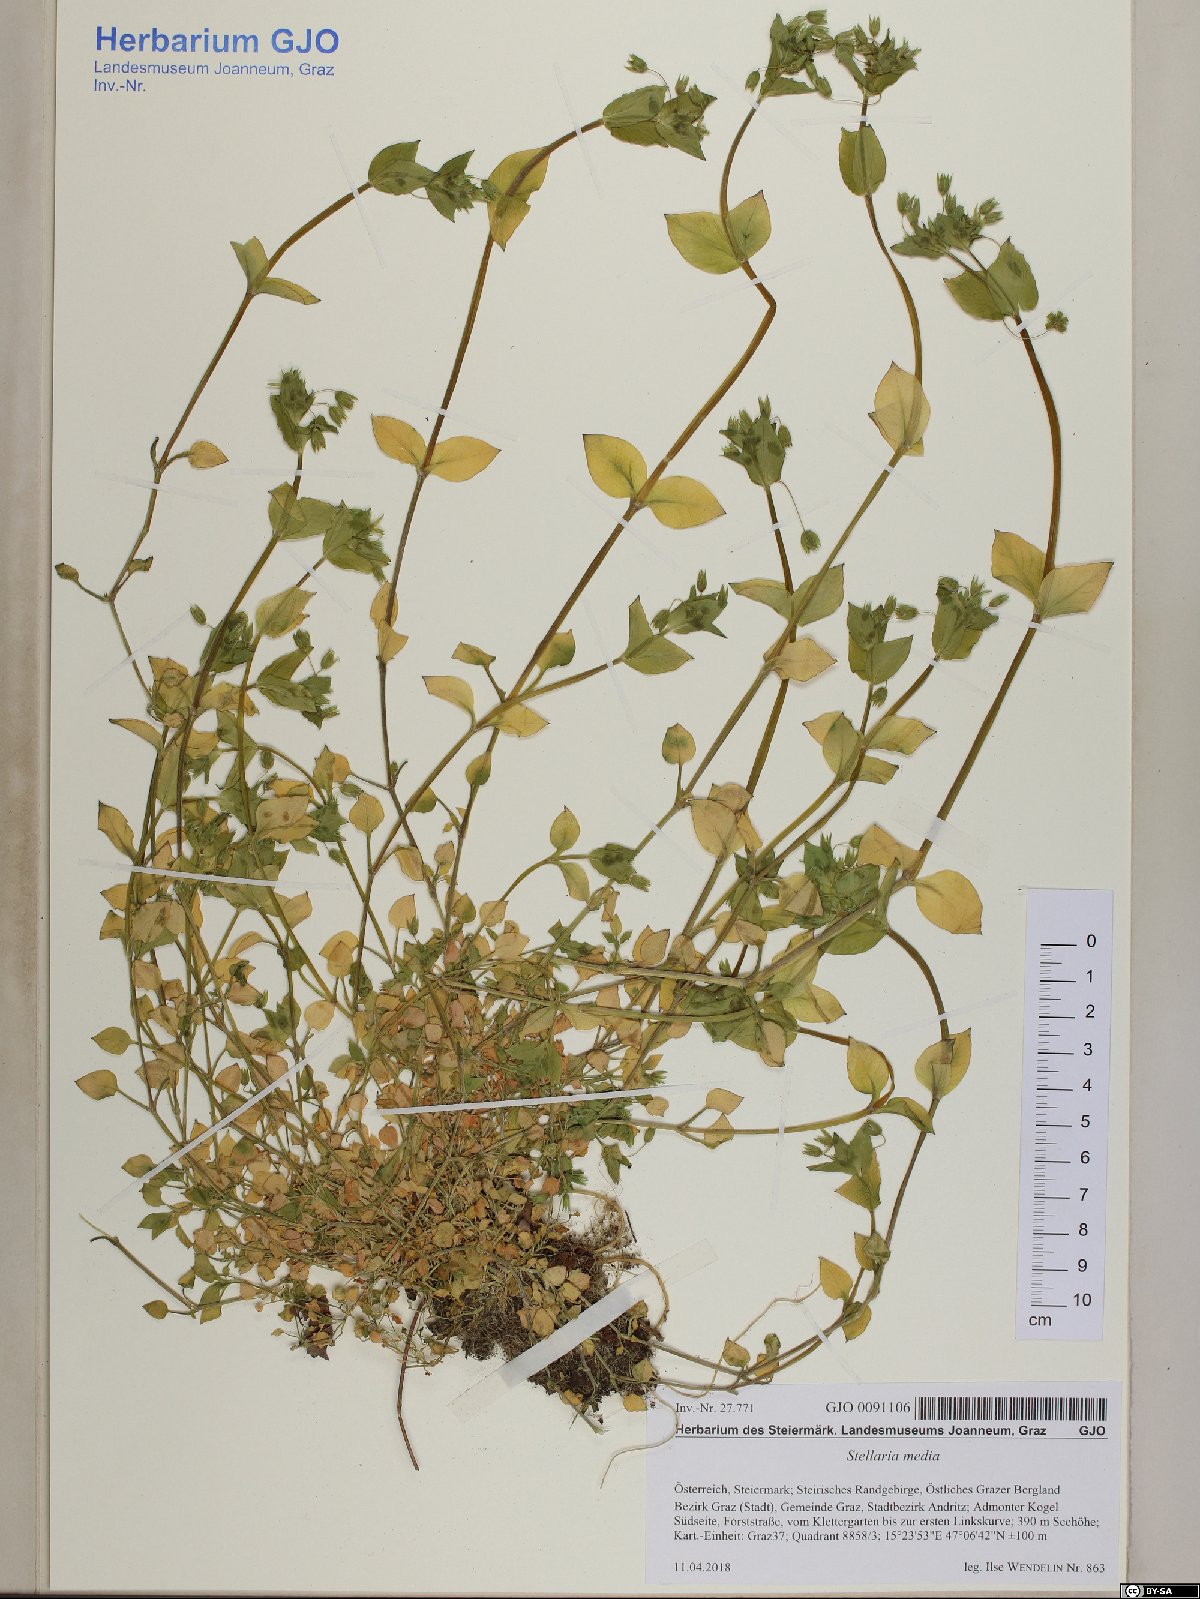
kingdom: Plantae
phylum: Tracheophyta
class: Magnoliopsida
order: Caryophyllales
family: Caryophyllaceae
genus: Stellaria
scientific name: Stellaria media
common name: Common chickweed
